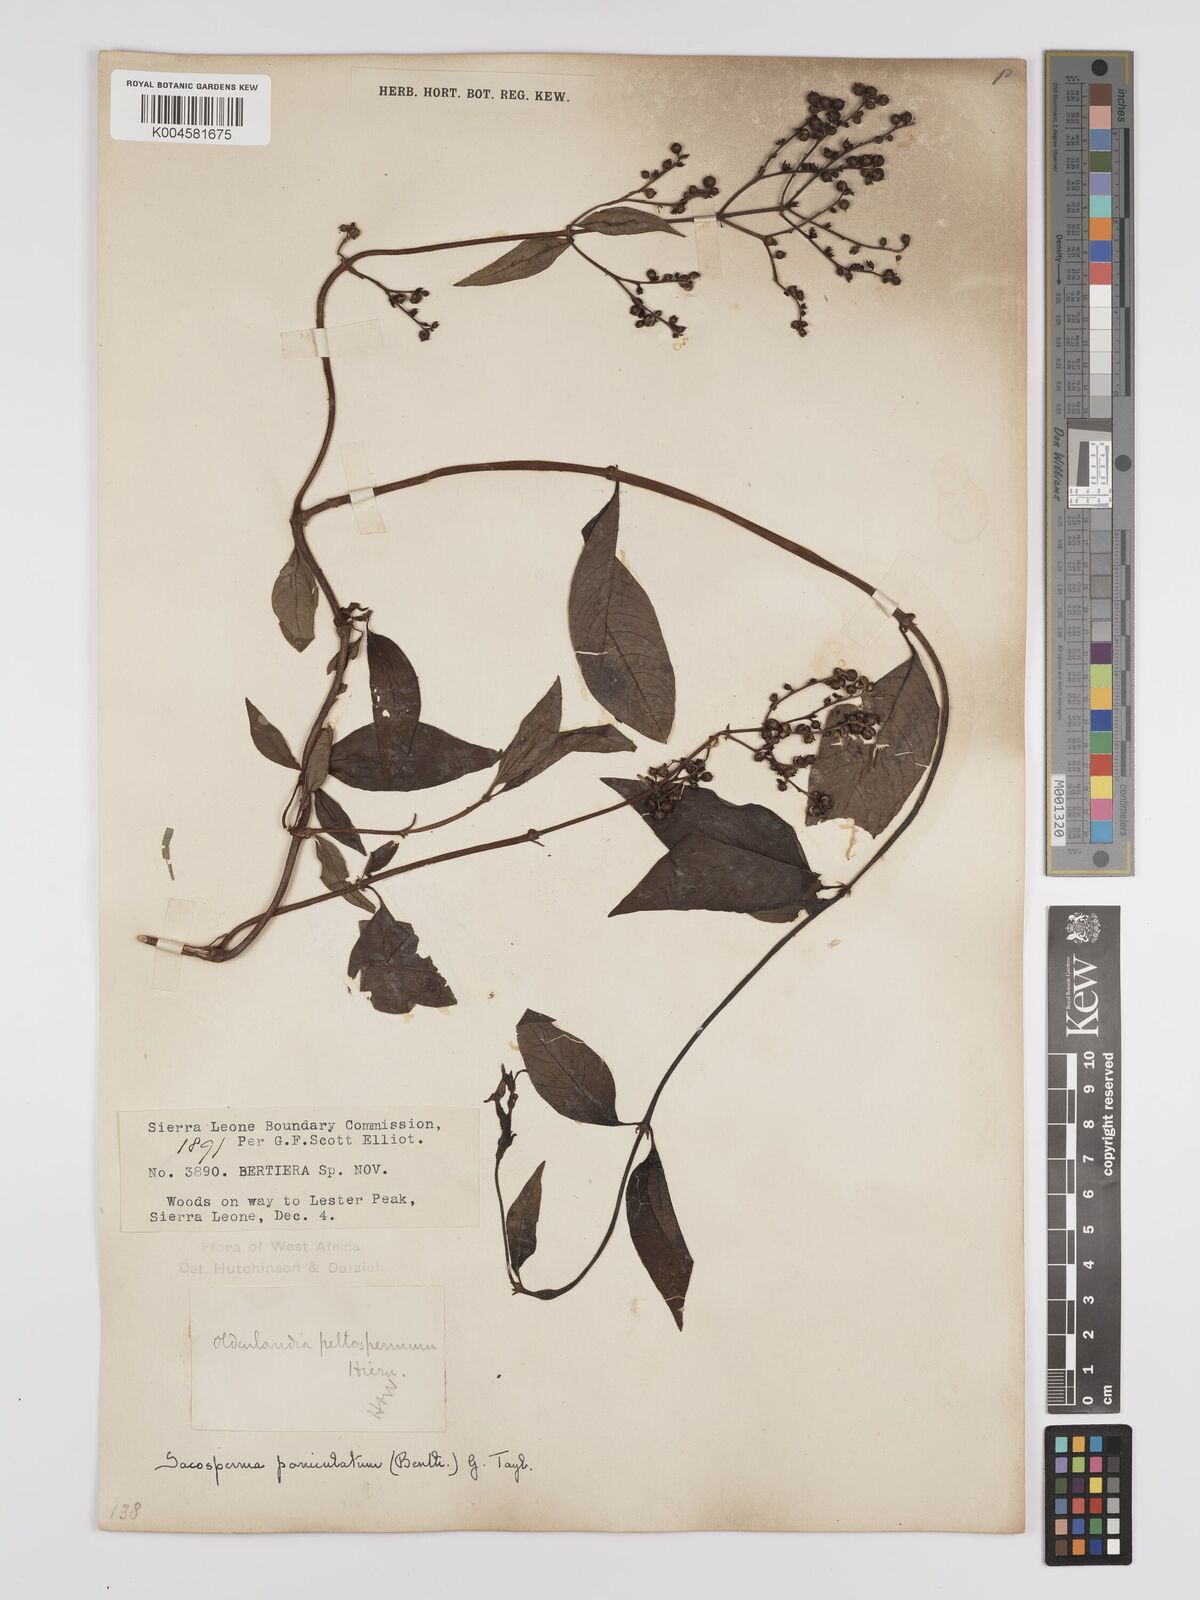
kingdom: Plantae
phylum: Tracheophyta
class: Magnoliopsida
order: Gentianales
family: Rubiaceae
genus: Sacosperma
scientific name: Sacosperma paniculatum
